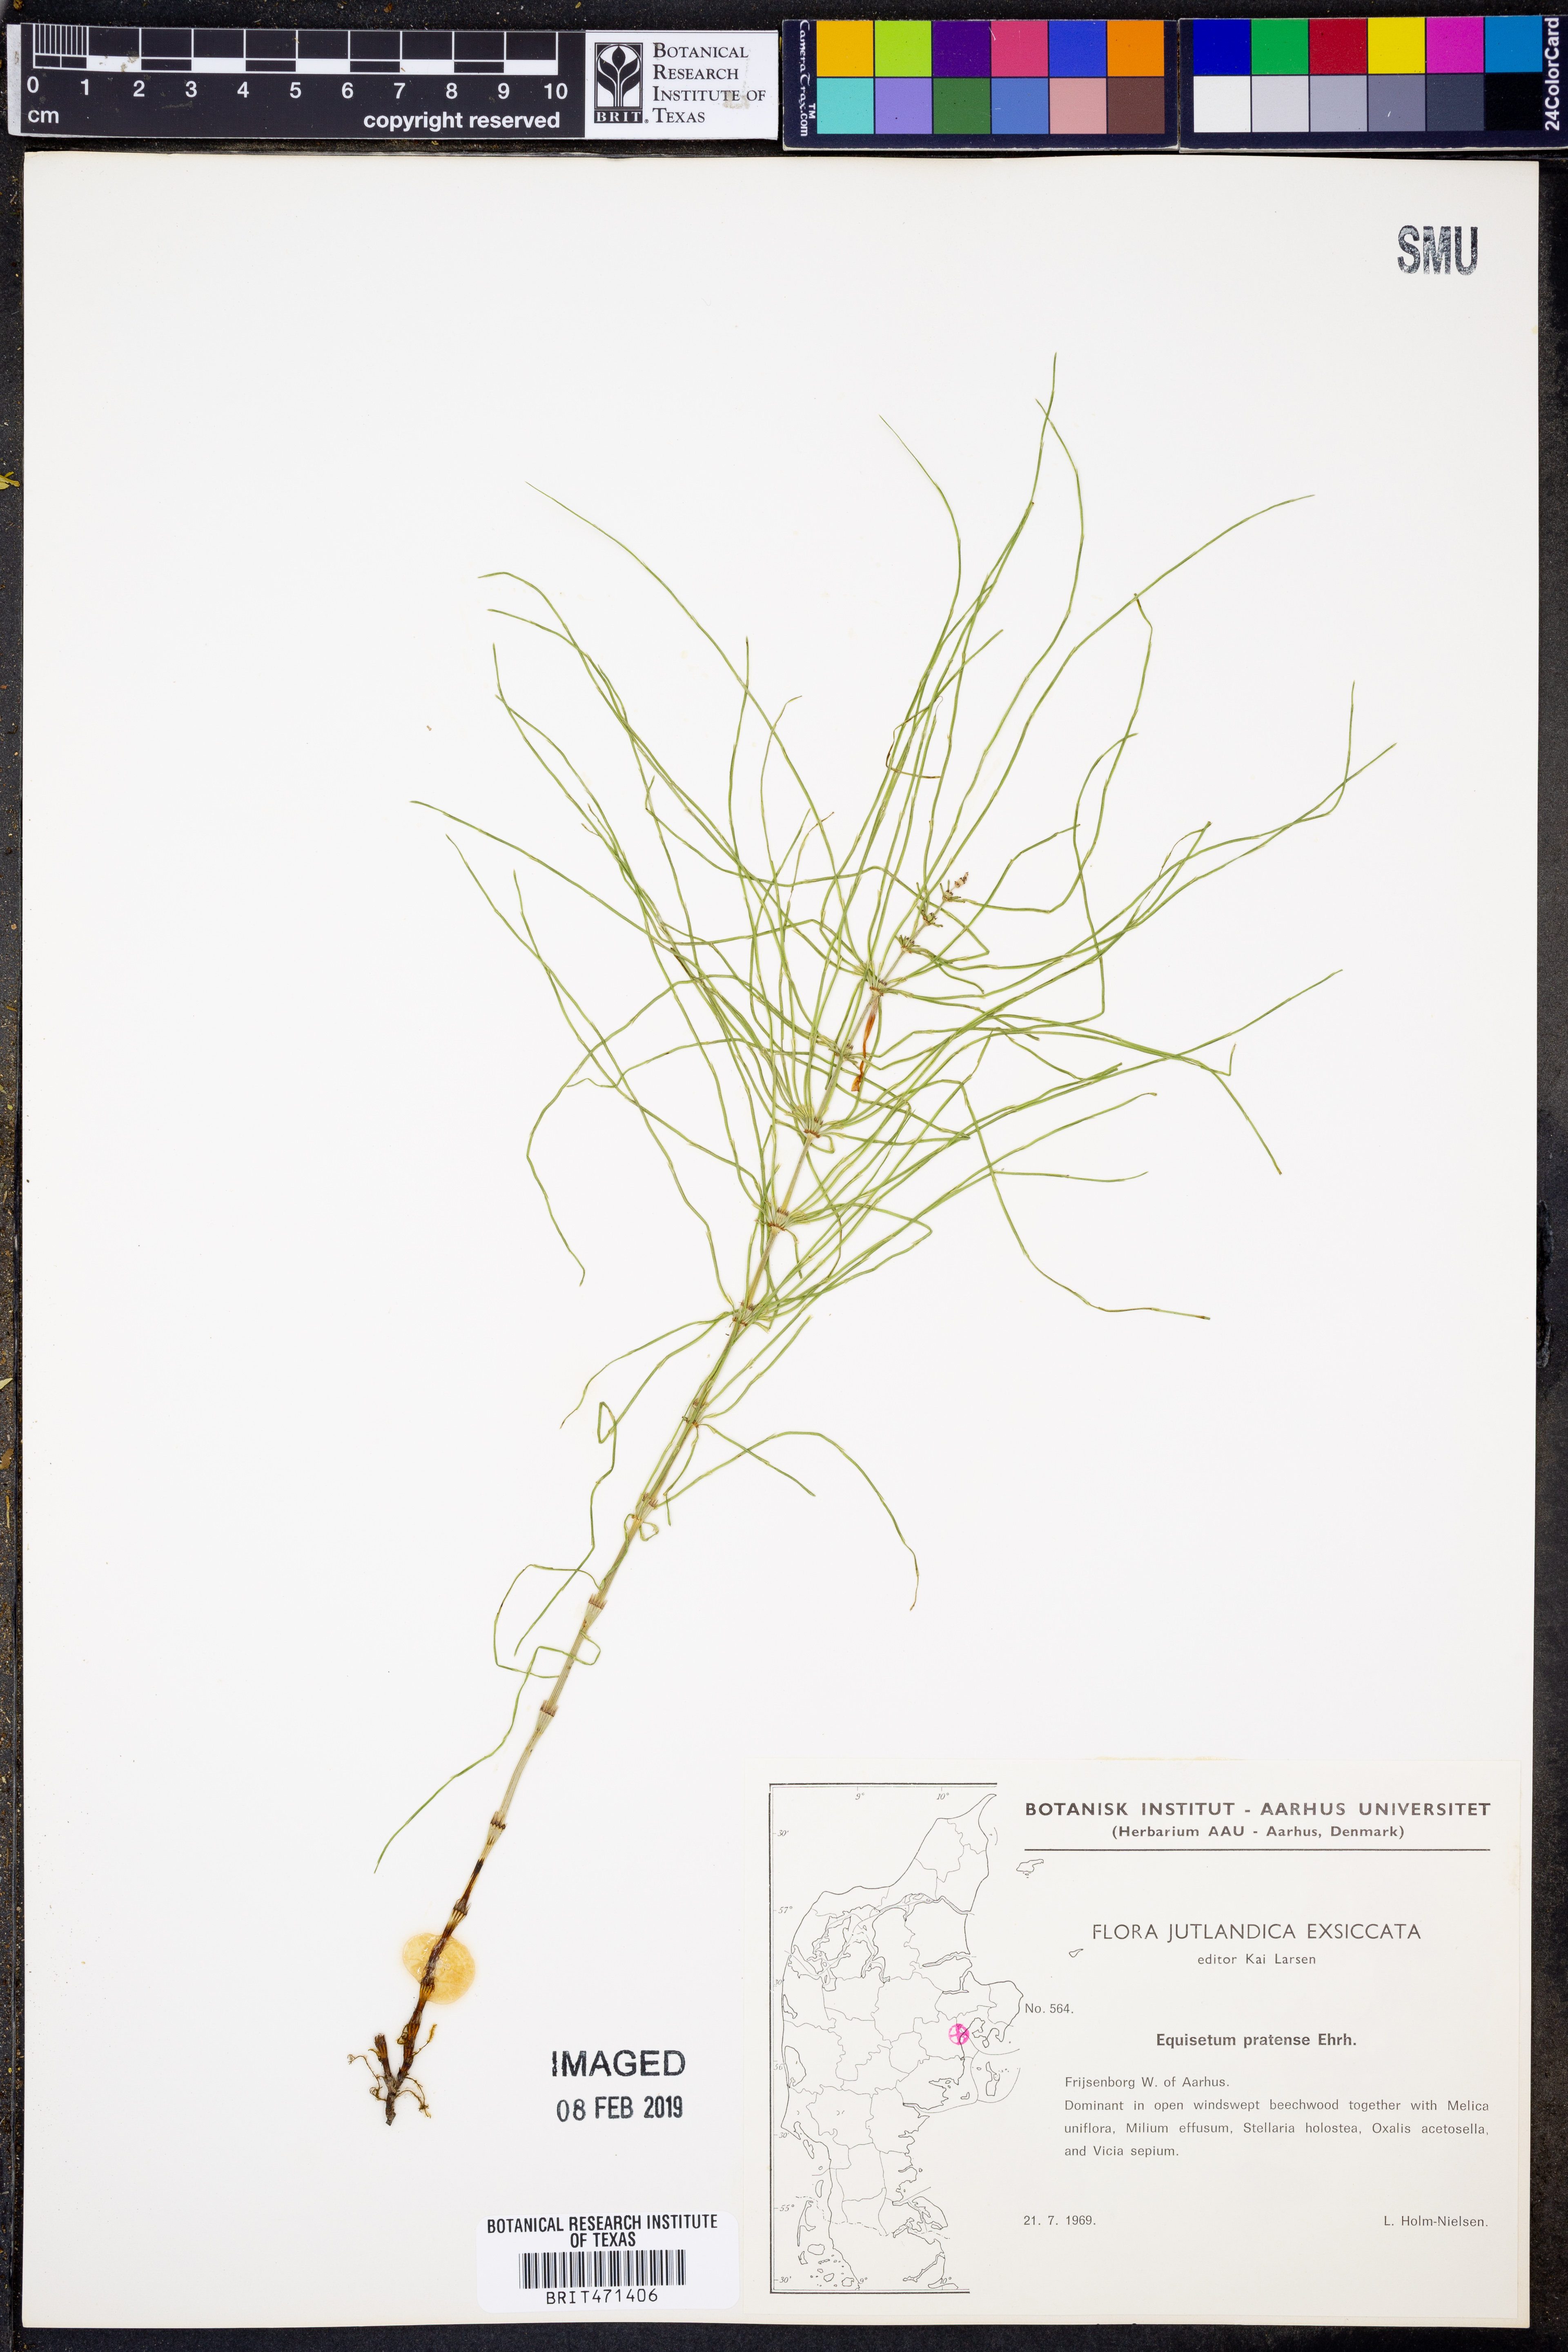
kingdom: Plantae
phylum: Tracheophyta
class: Polypodiopsida
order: Equisetales
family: Equisetaceae
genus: Equisetum
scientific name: Equisetum pratense
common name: Meadow horsetail
